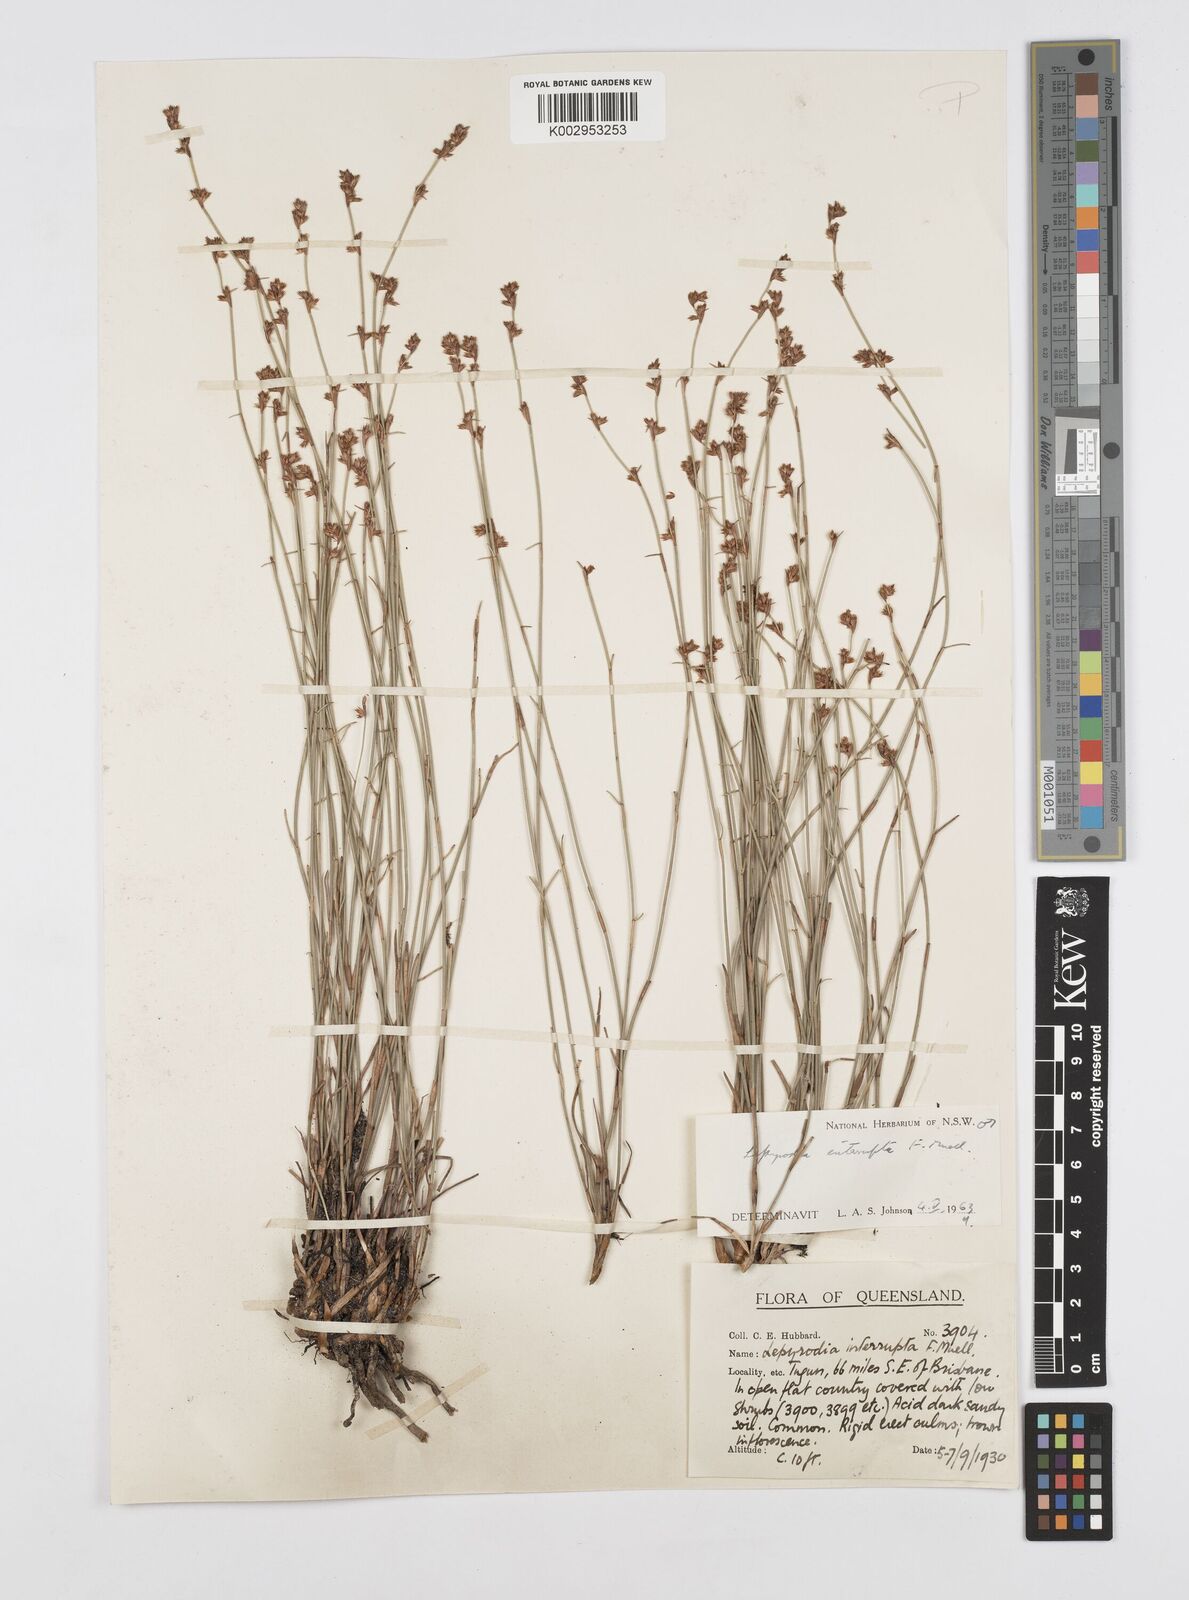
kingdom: Plantae
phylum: Tracheophyta
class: Liliopsida
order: Poales
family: Restionaceae
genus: Sporadanthus
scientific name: Sporadanthus interruptus
